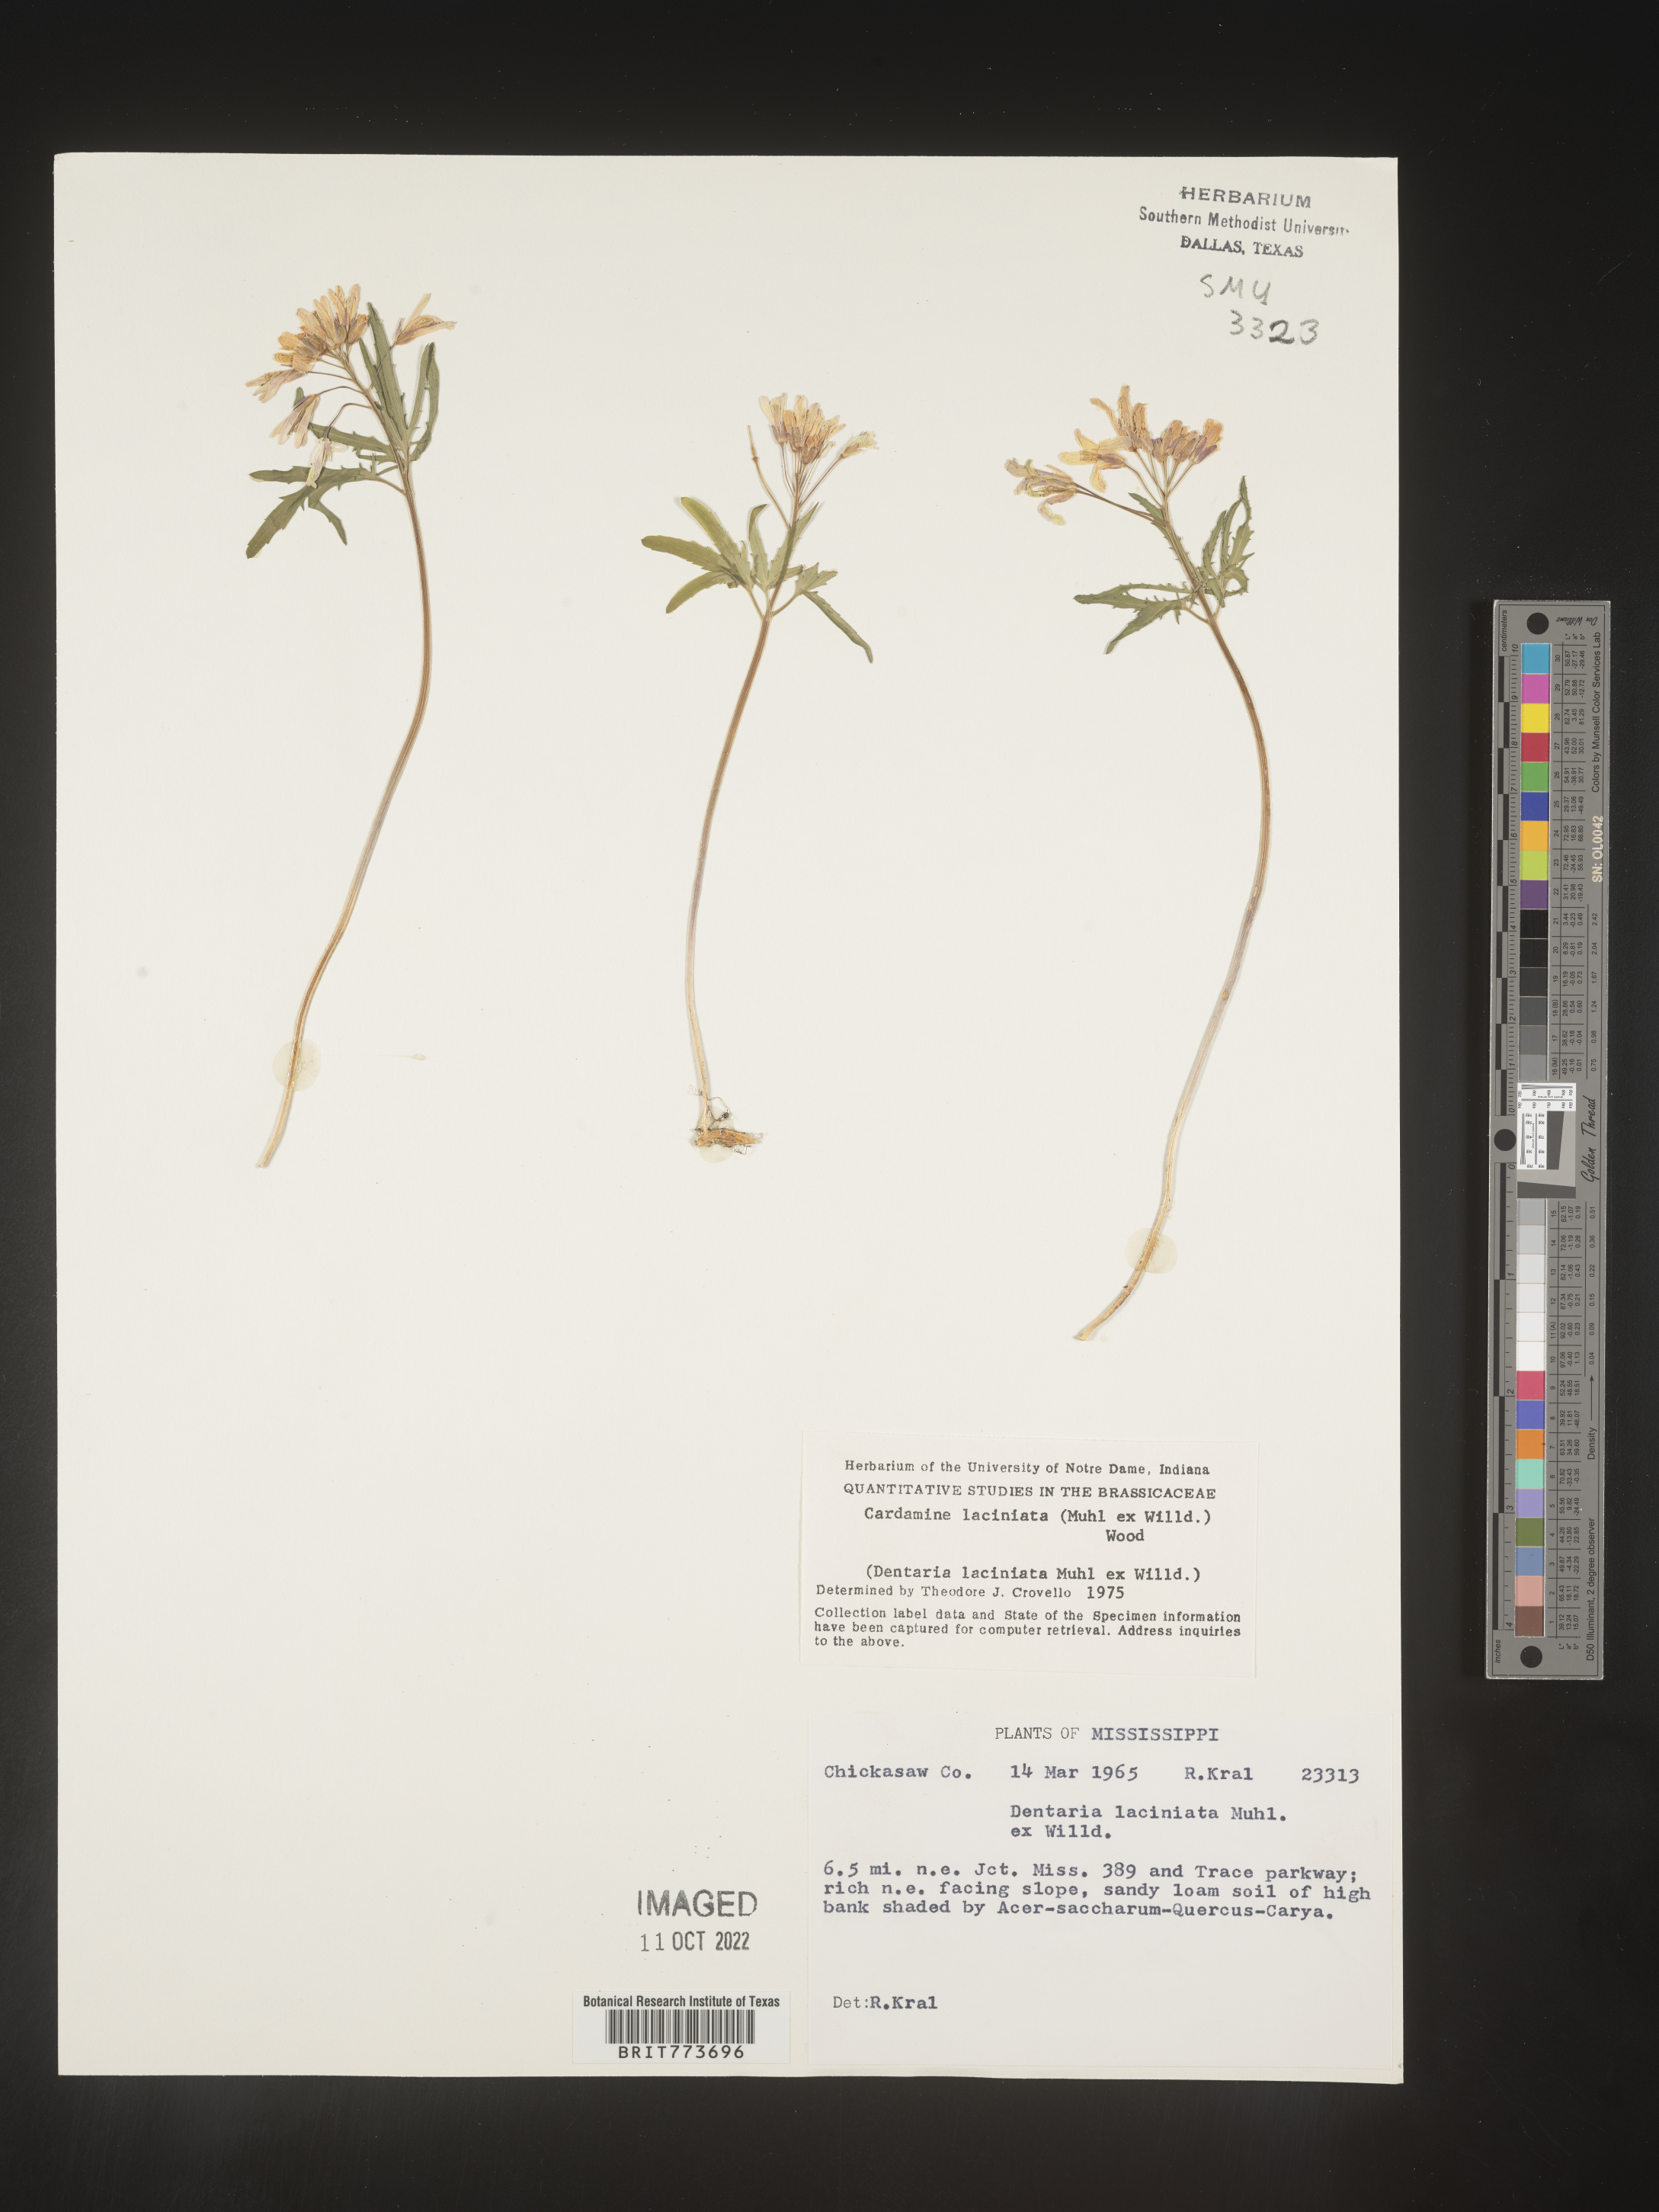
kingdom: Plantae
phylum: Tracheophyta
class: Magnoliopsida
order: Brassicales
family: Brassicaceae
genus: Rorippa
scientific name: Rorippa laciniata
